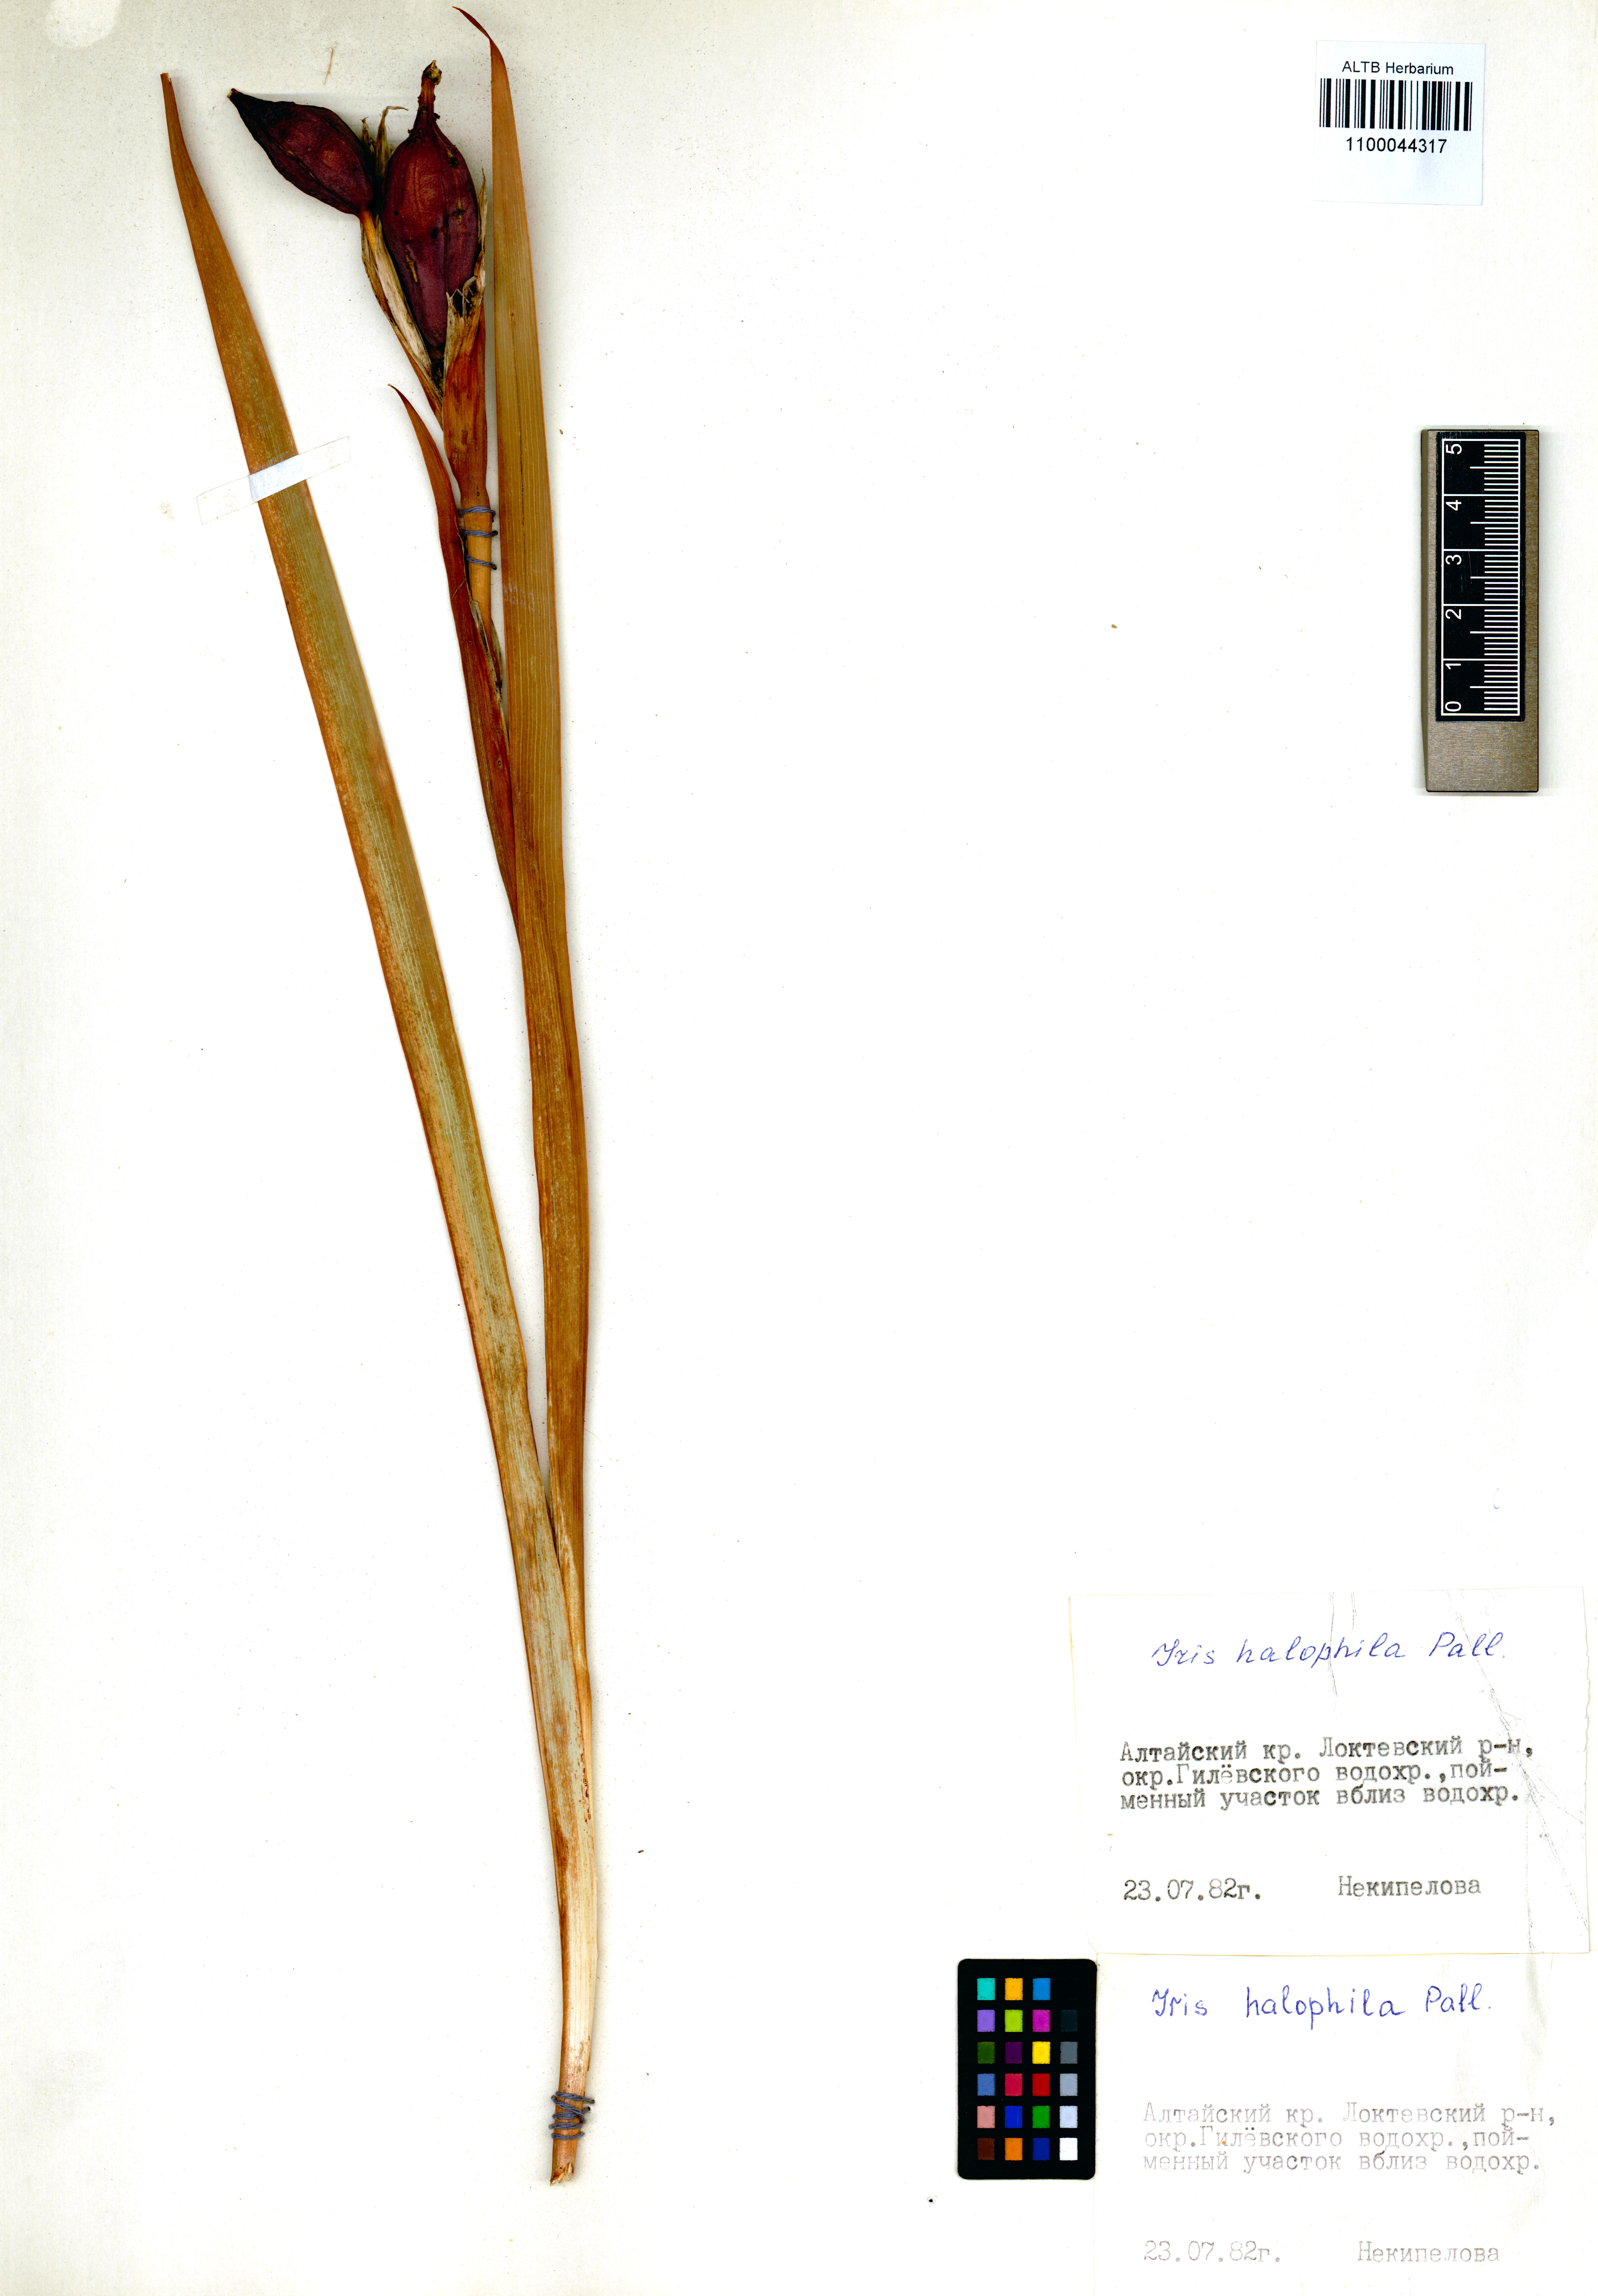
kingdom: Plantae
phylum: Tracheophyta
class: Liliopsida
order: Asparagales
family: Iridaceae
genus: Iris
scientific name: Iris halophila
